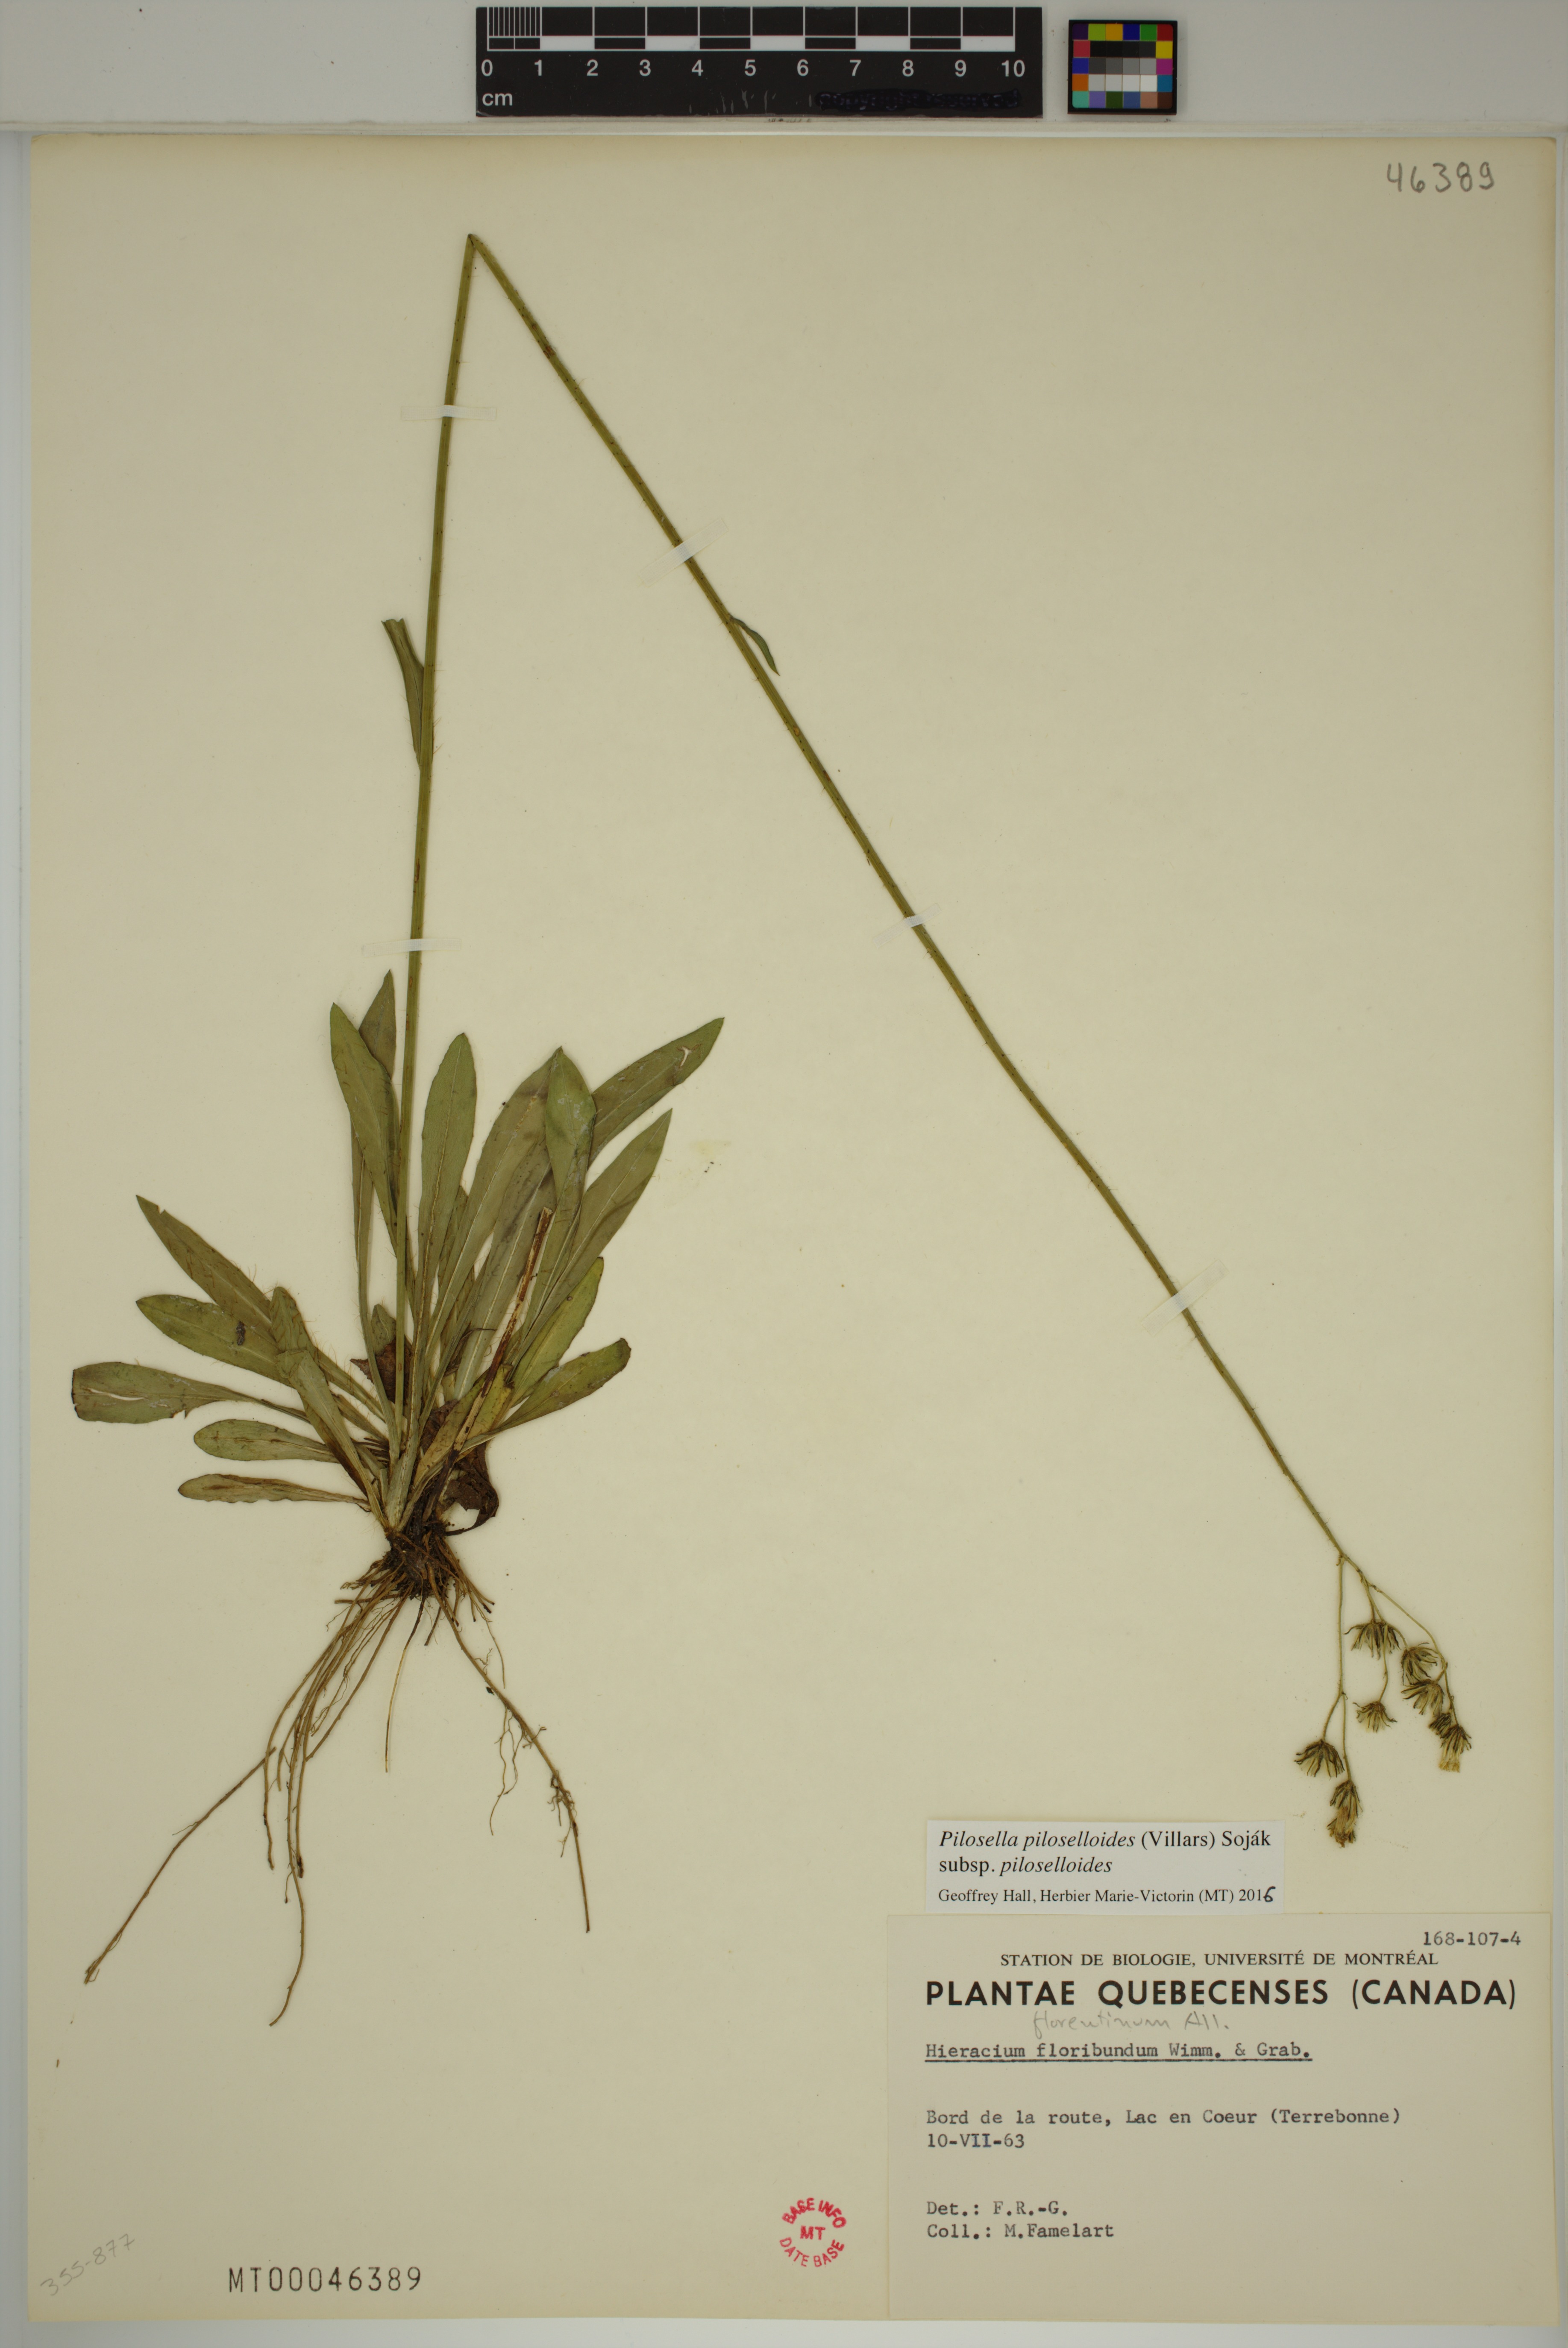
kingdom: Plantae
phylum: Tracheophyta
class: Magnoliopsida
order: Asterales
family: Asteraceae
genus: Pilosella
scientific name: Pilosella piloselloides
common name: Glaucous king-devil
